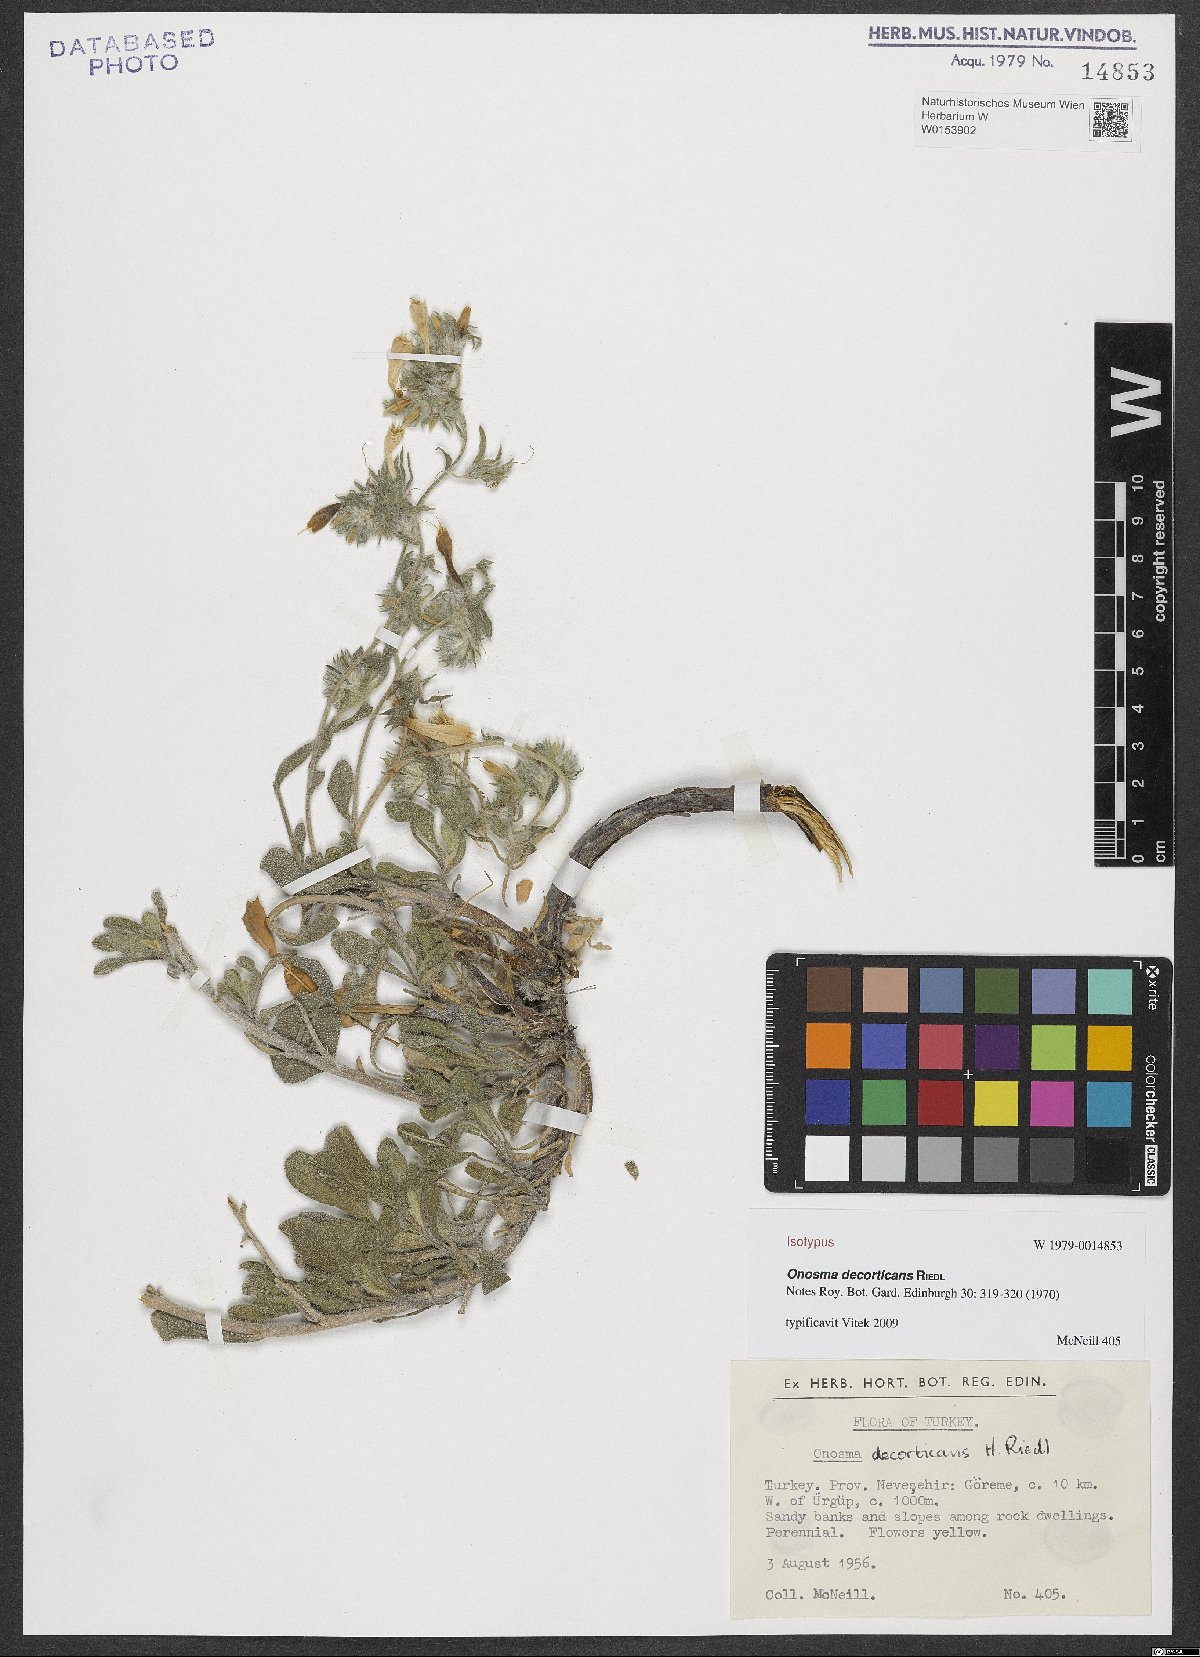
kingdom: Plantae
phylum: Tracheophyta
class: Magnoliopsida
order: Boraginales
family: Boraginaceae
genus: Onosma
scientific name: Onosma decorticans
